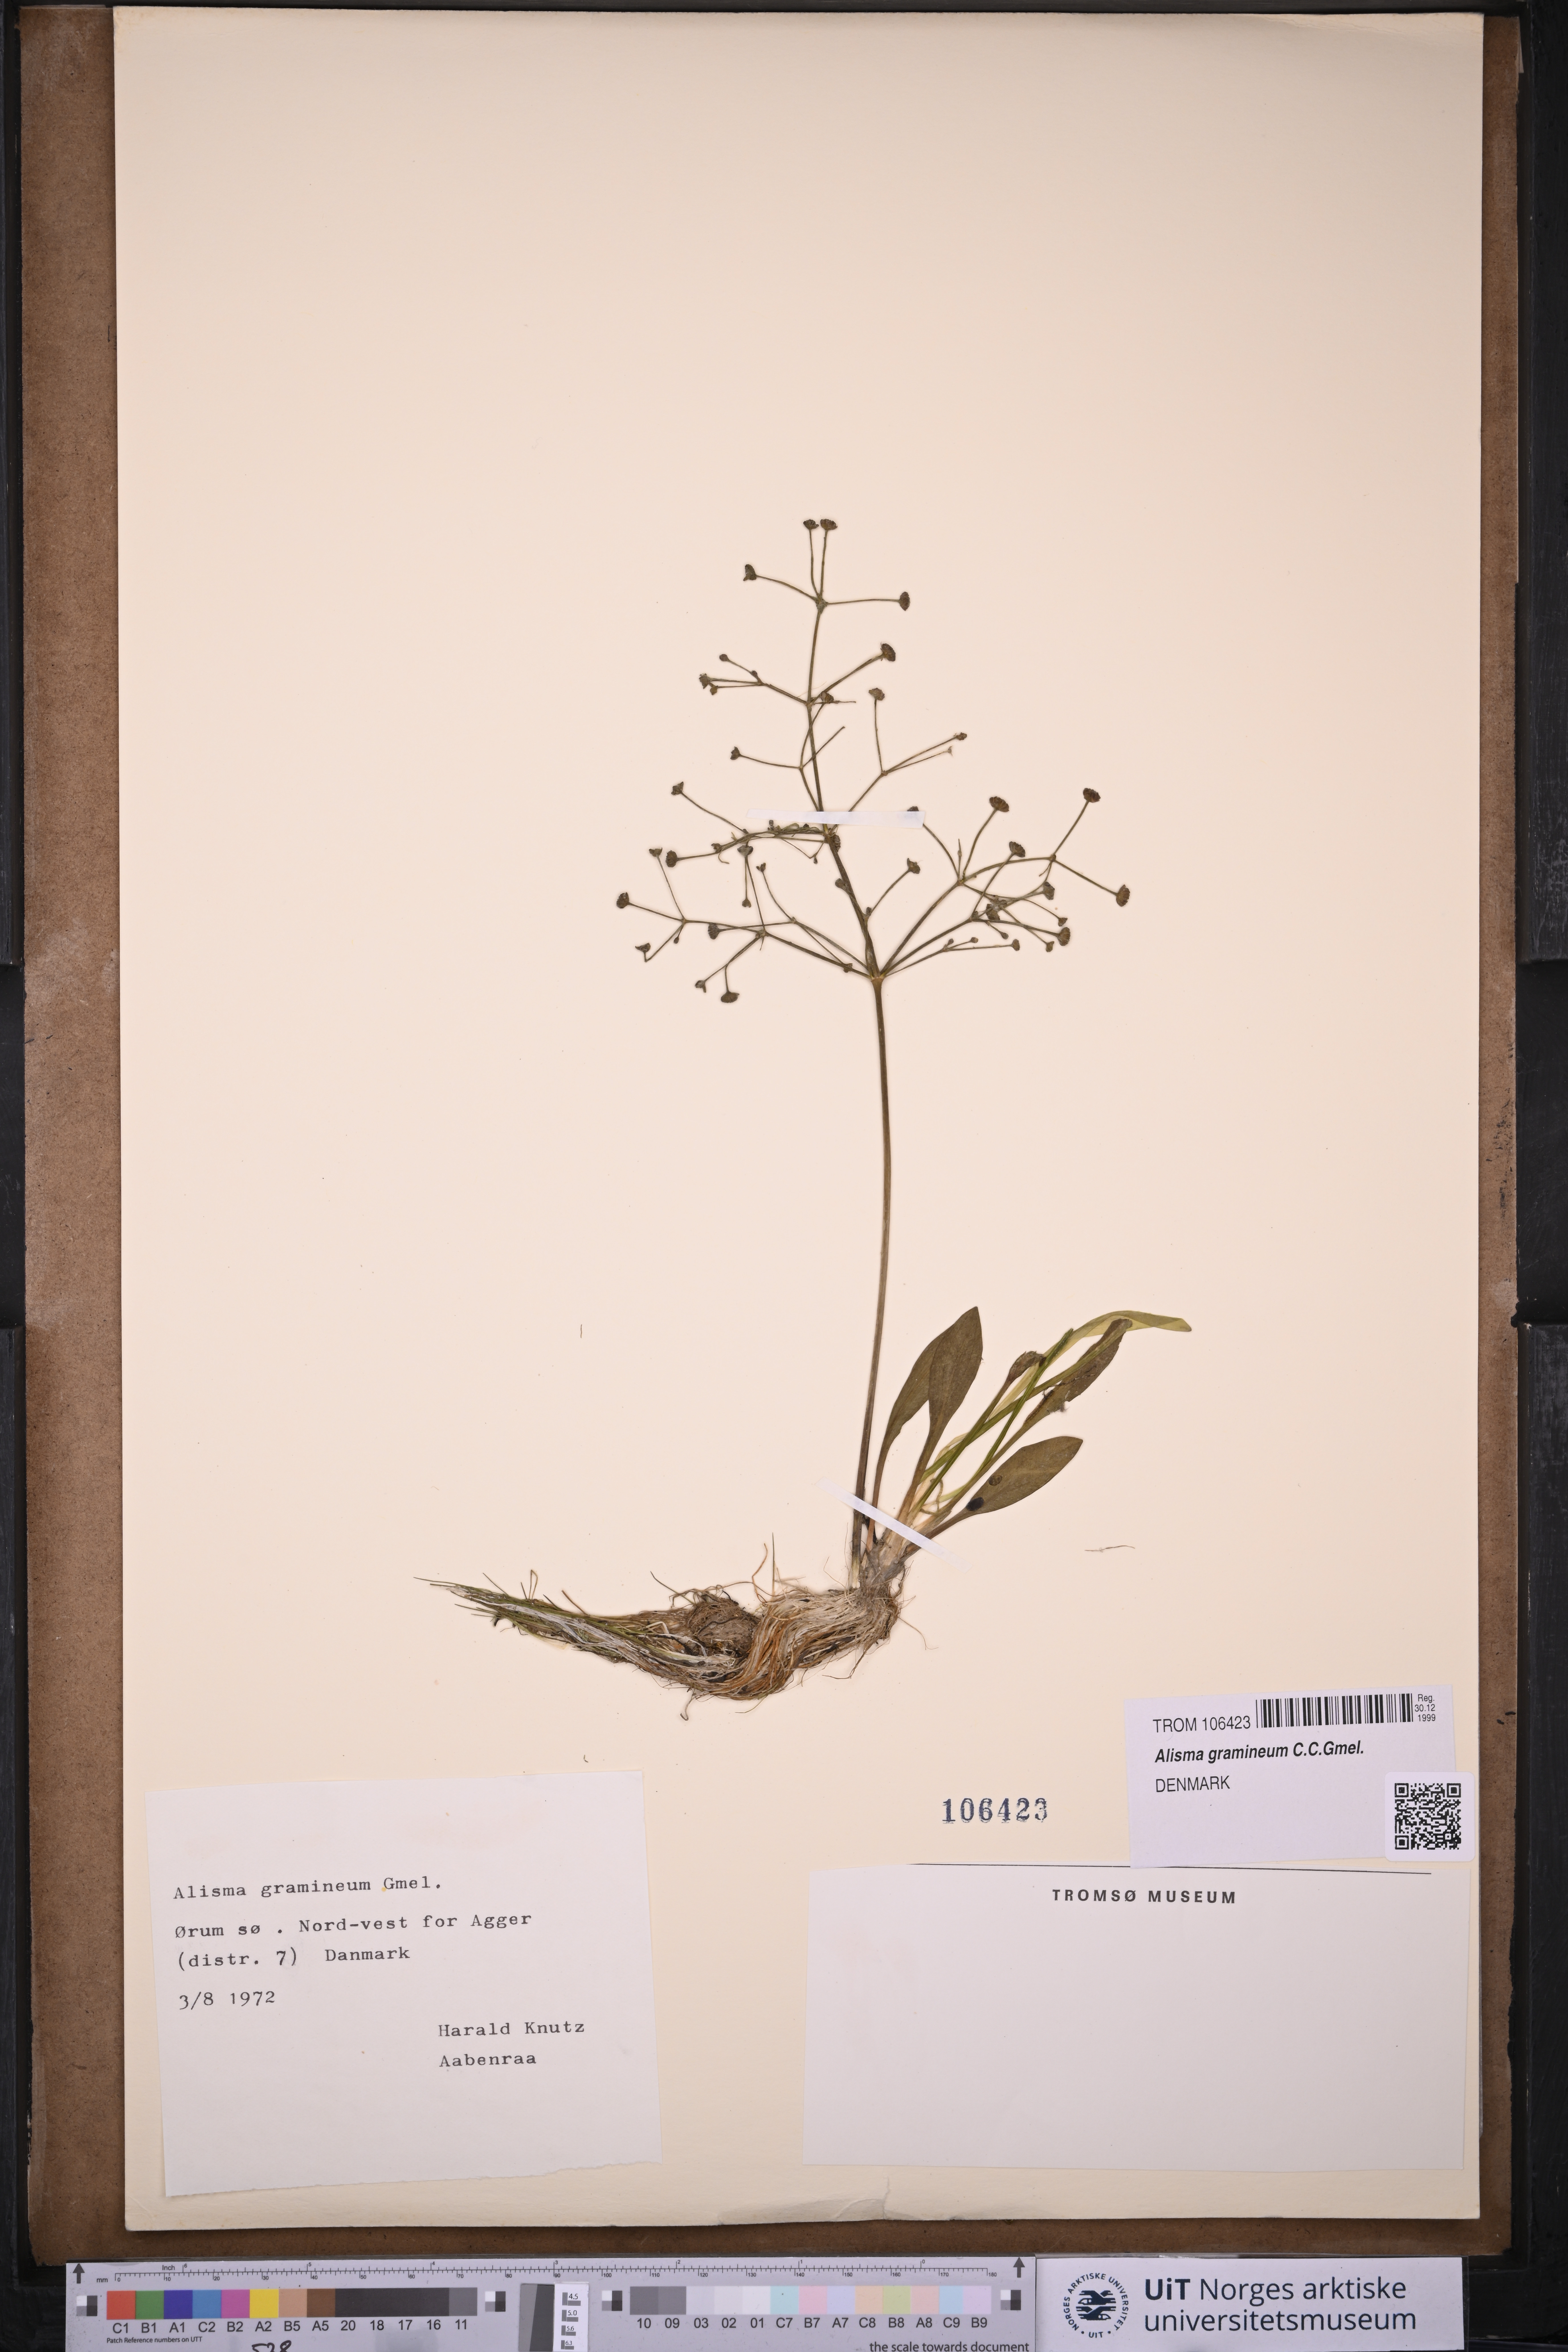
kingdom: Plantae
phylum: Tracheophyta
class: Liliopsida
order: Alismatales
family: Alismataceae
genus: Alisma
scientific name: Alisma gramineum
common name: Ribbon-leaved water-plantain
